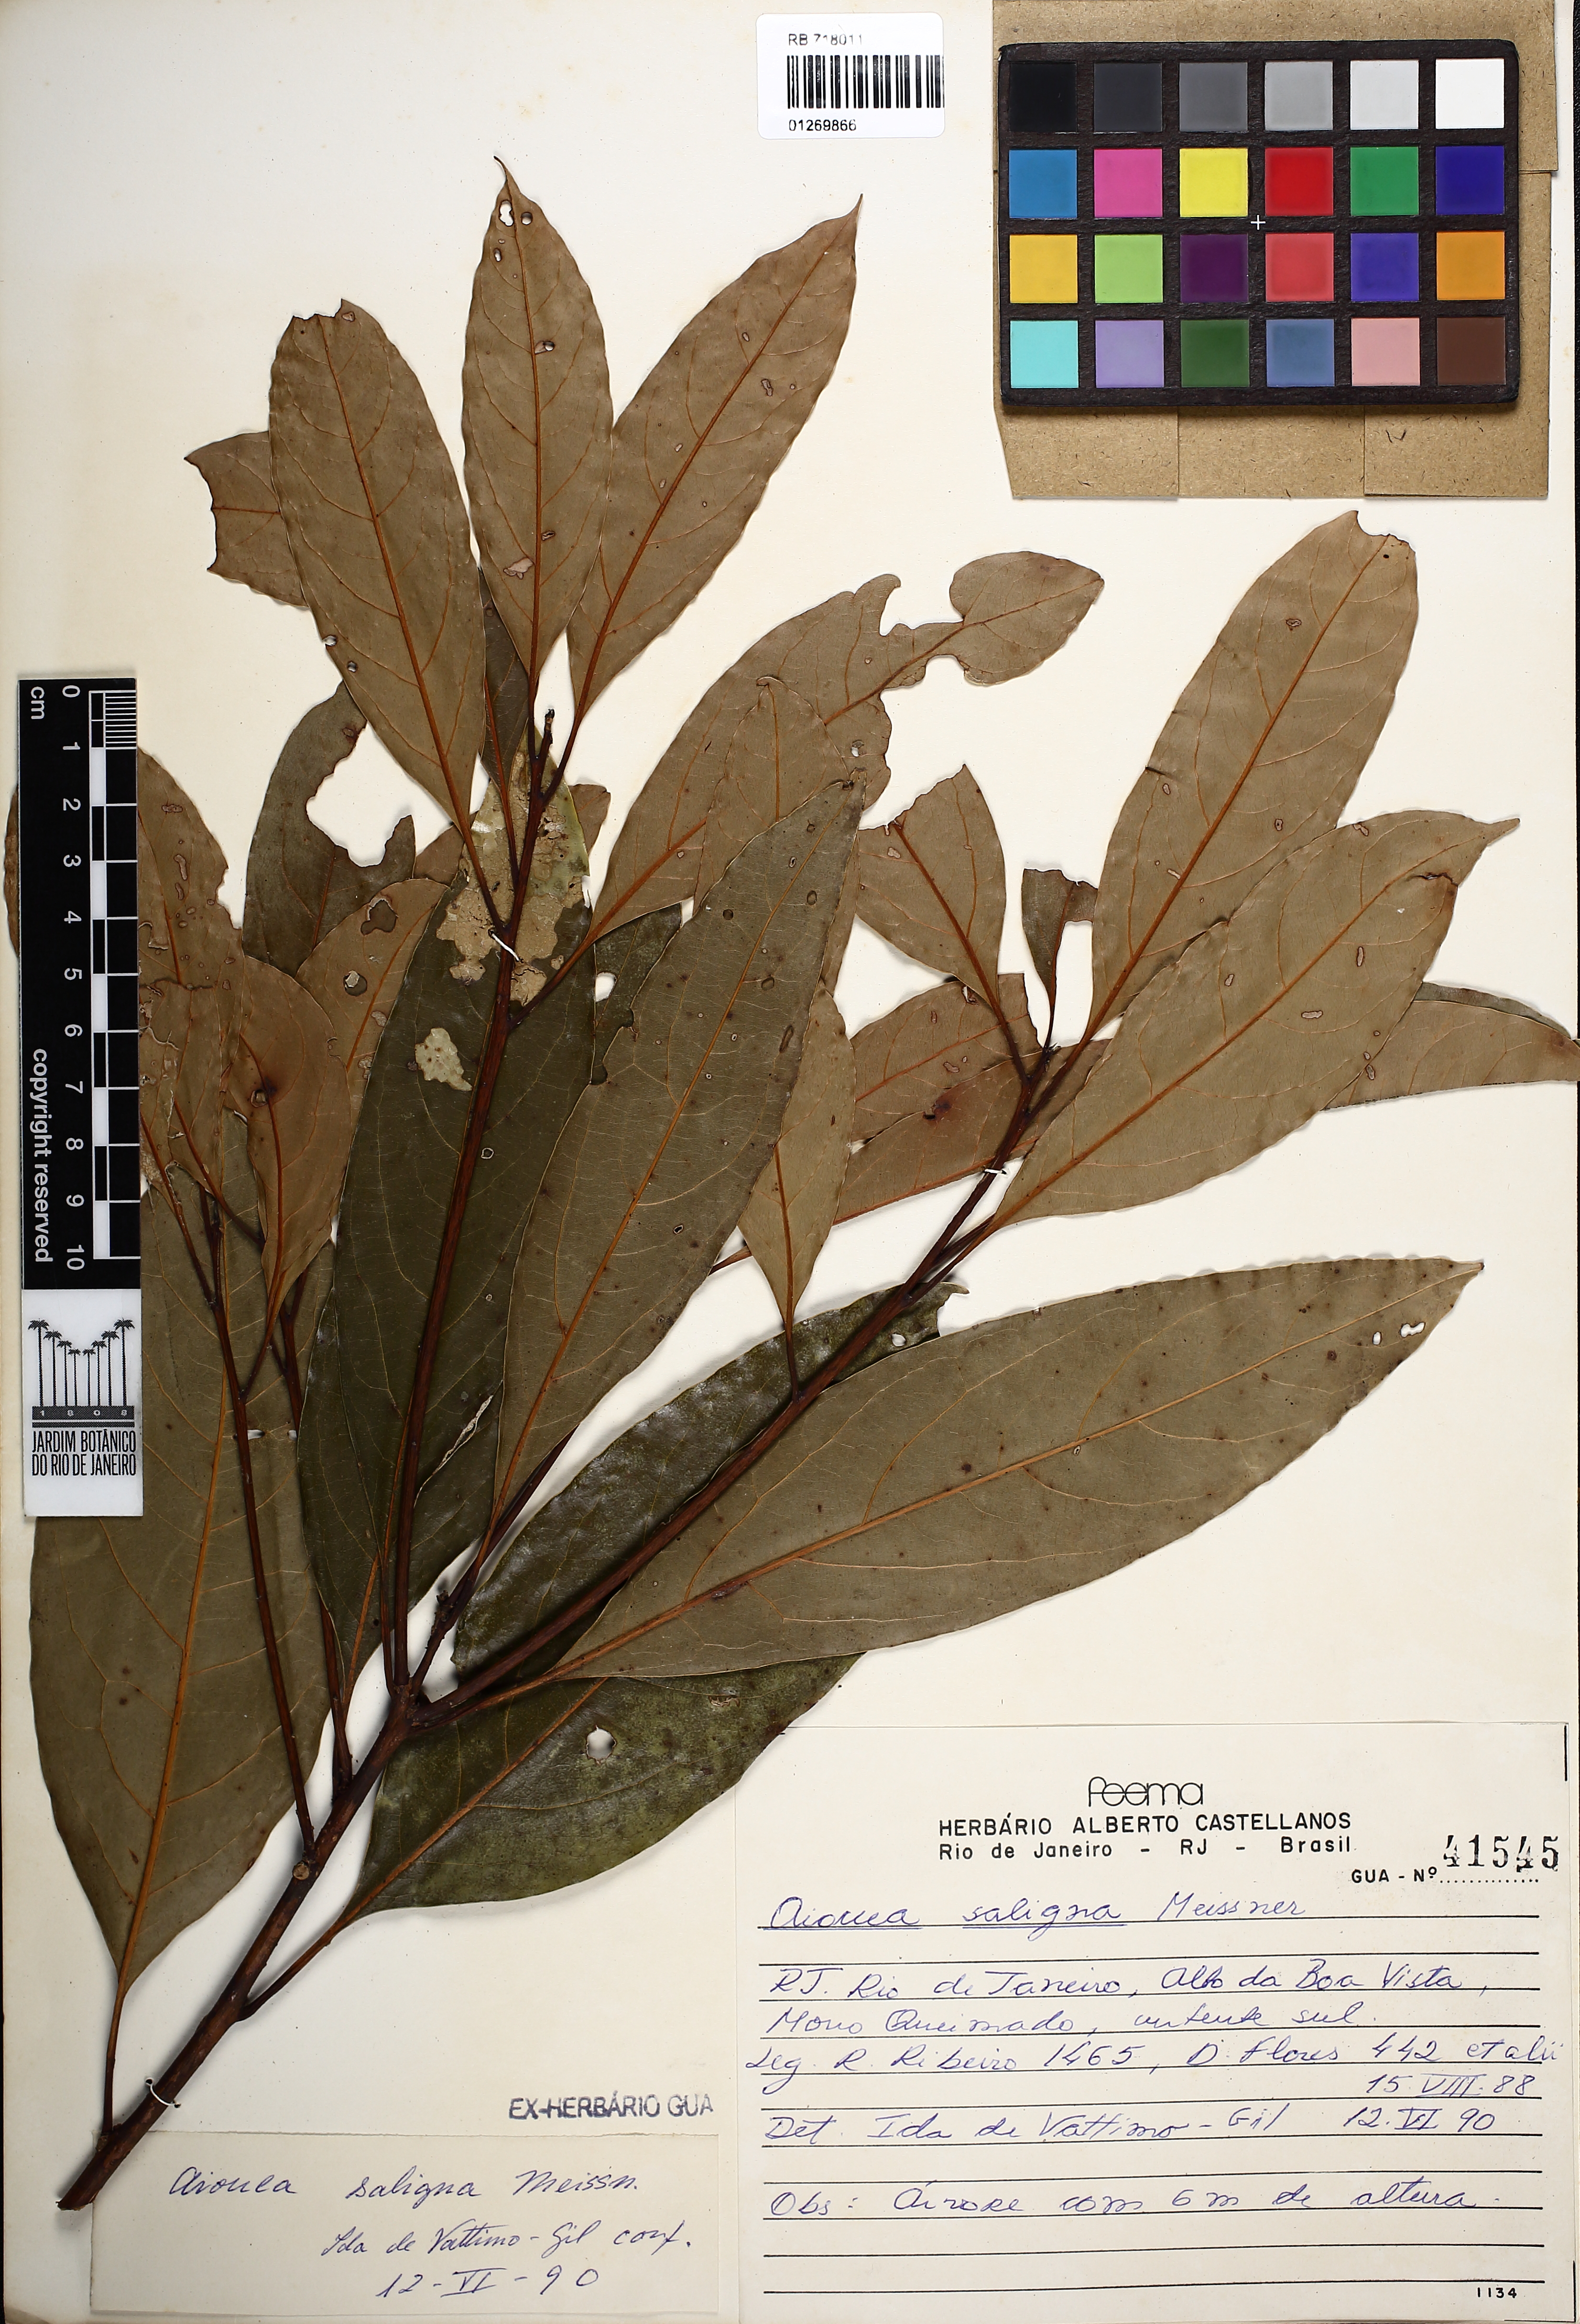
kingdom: Plantae
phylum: Tracheophyta
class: Magnoliopsida
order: Laurales
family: Lauraceae
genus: Aiouea
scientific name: Aiouea saligna
